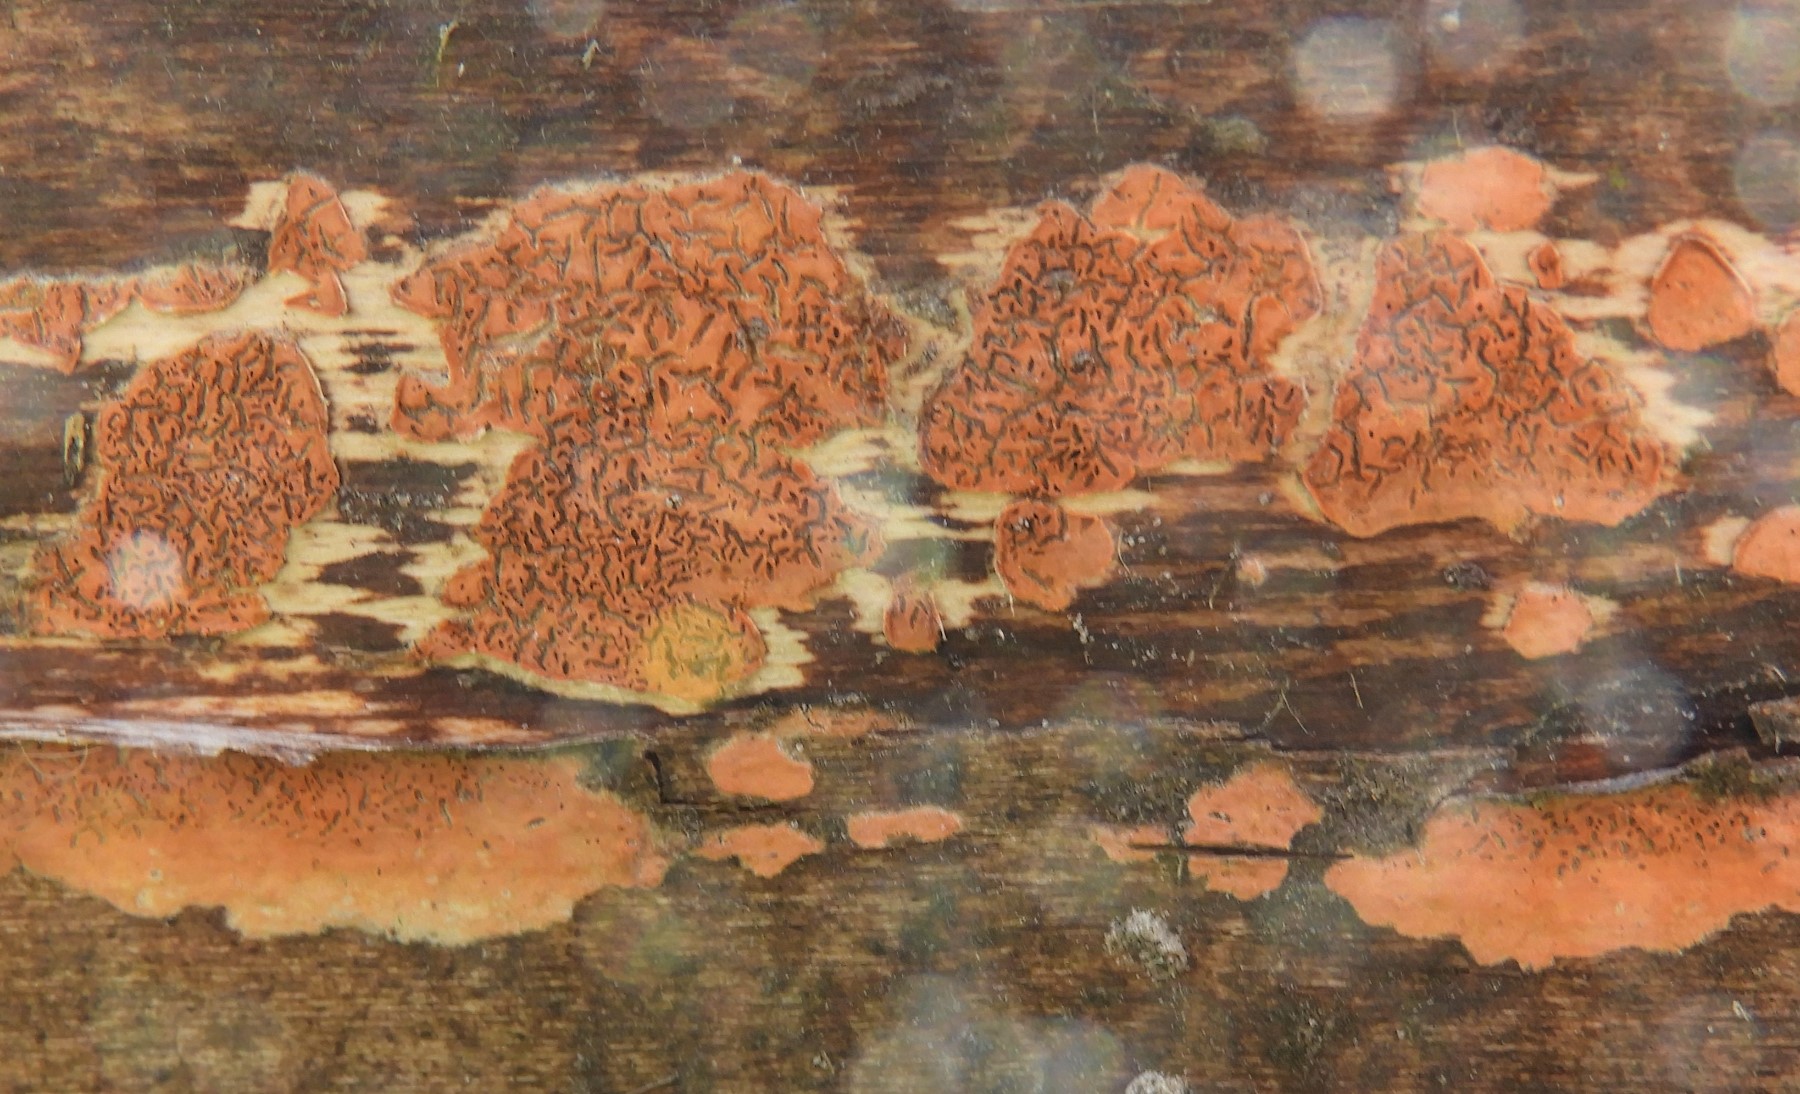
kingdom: Fungi
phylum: Basidiomycota
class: Agaricomycetes
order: Russulales
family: Peniophoraceae
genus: Peniophora
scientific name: Peniophora incarnata
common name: laksefarvet voksskind
